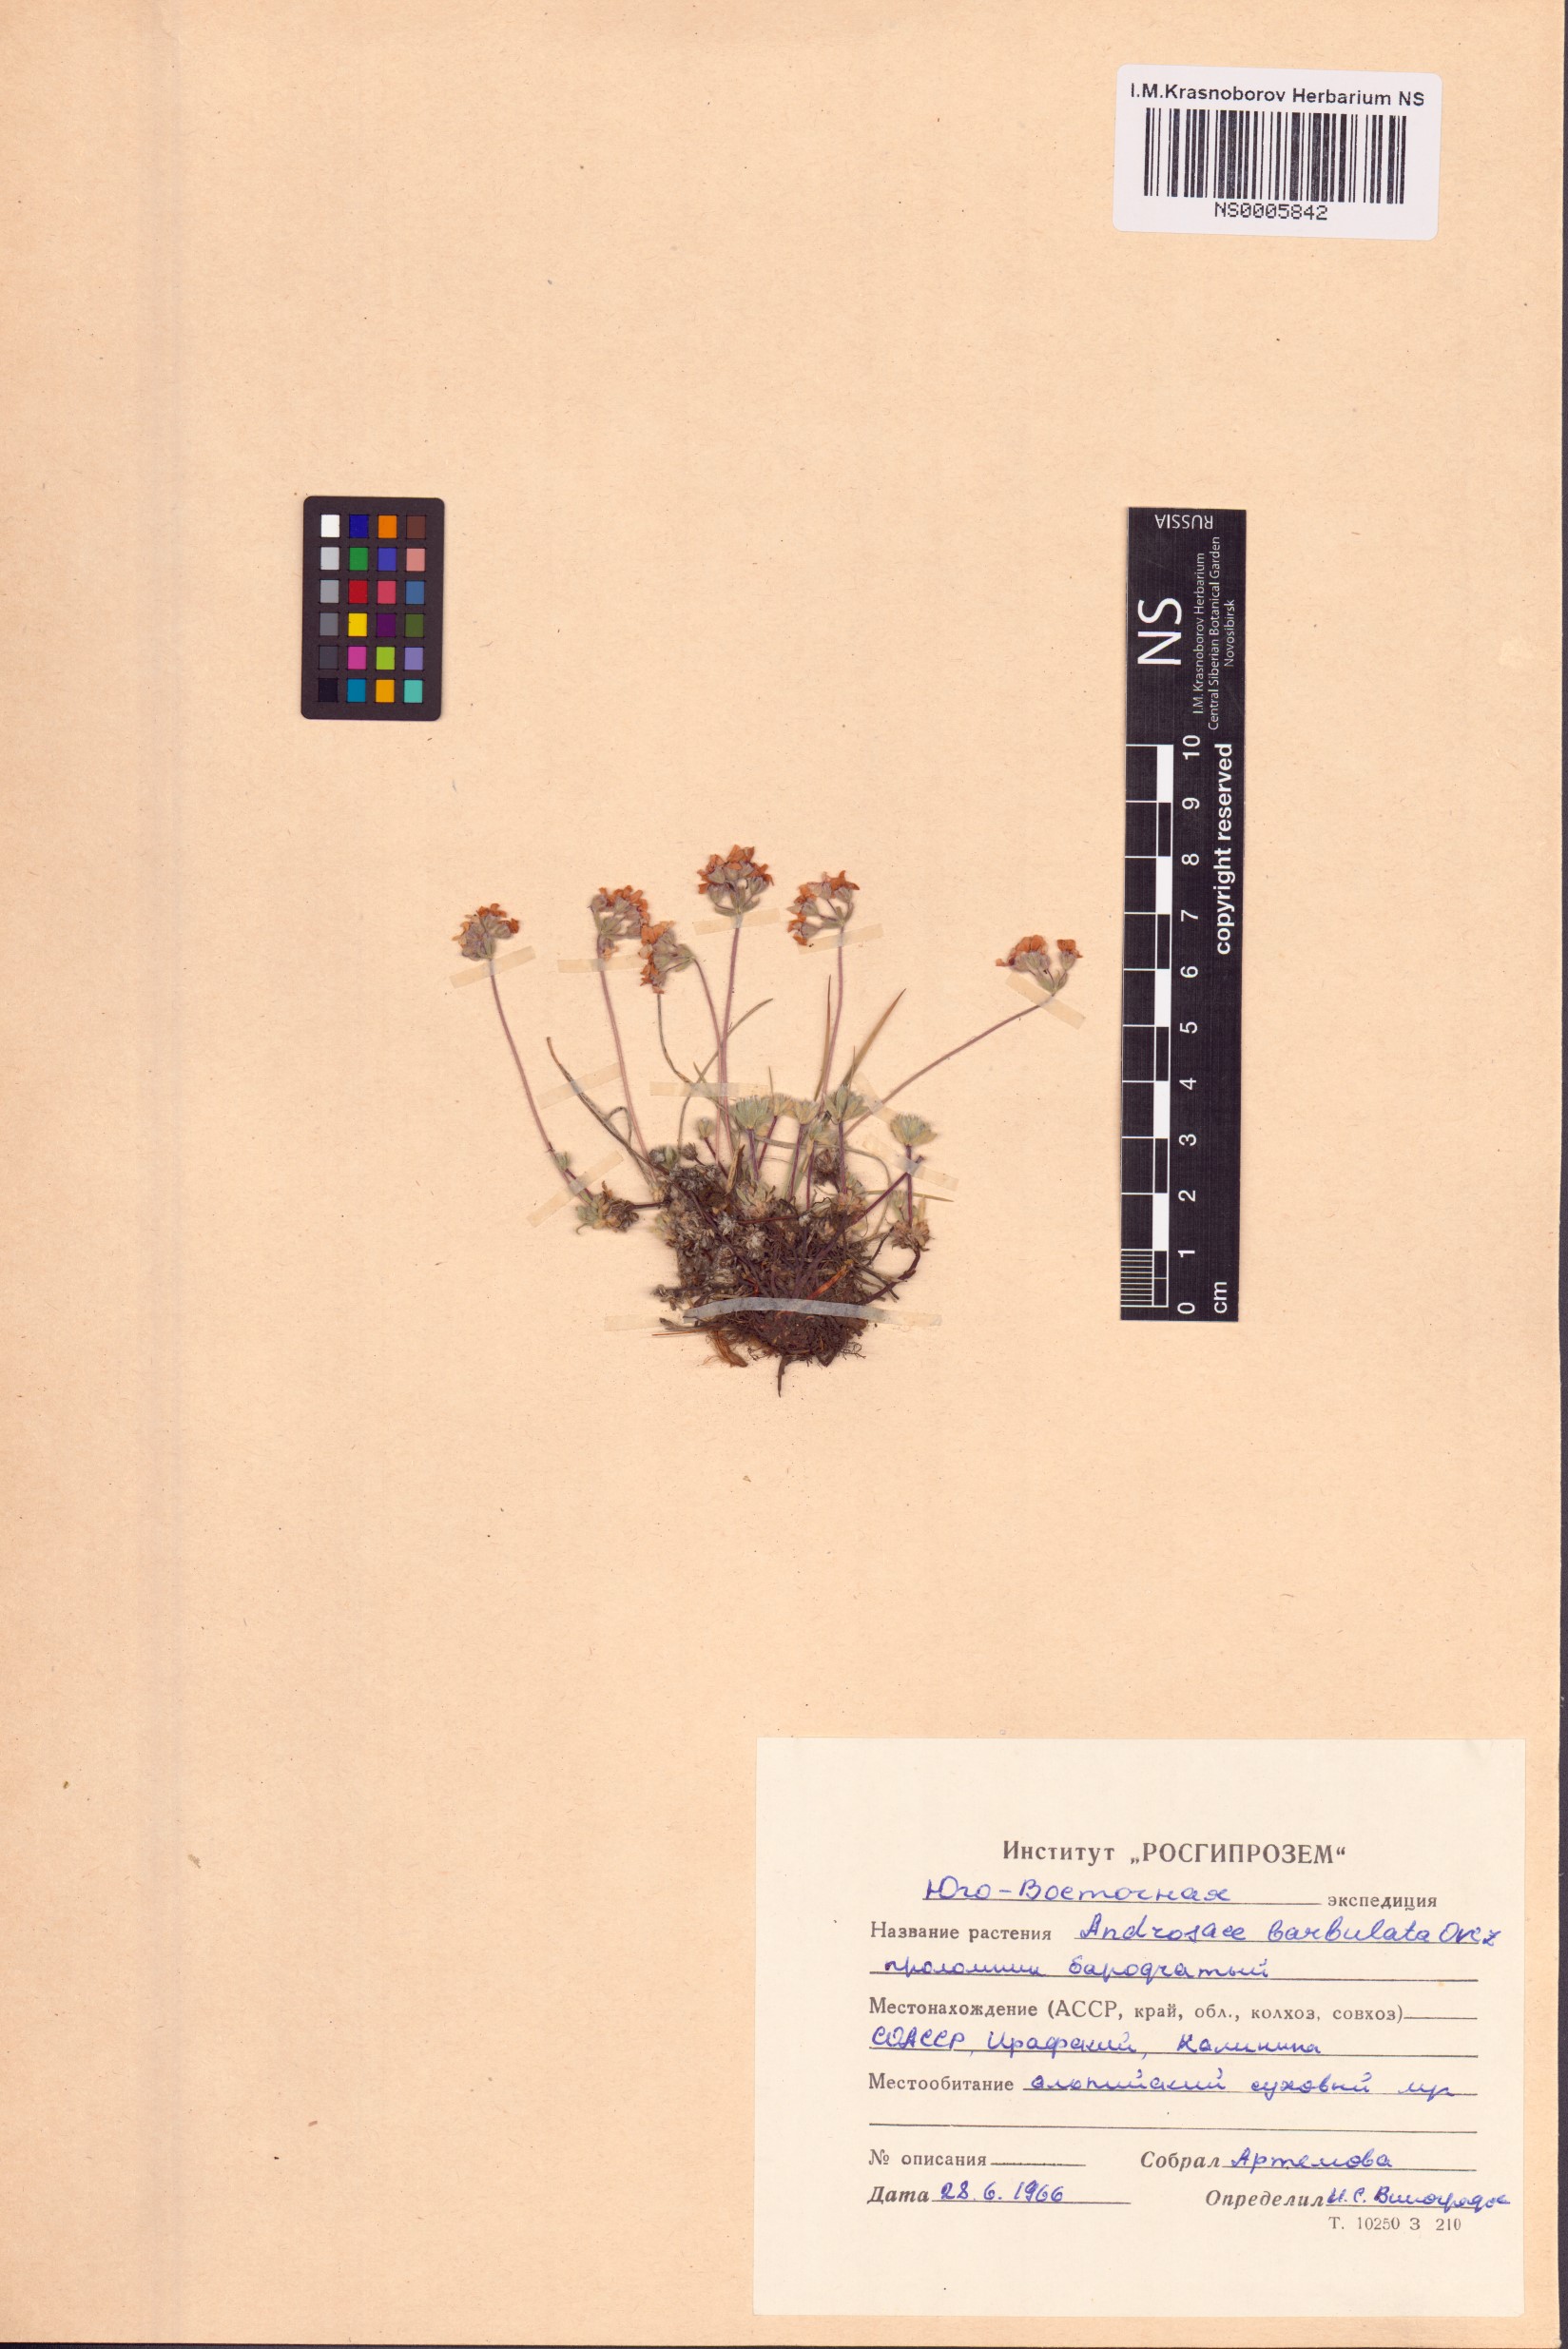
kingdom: Plantae
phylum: Tracheophyta
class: Magnoliopsida
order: Ericales
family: Primulaceae
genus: Androsace
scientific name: Androsace villosa
